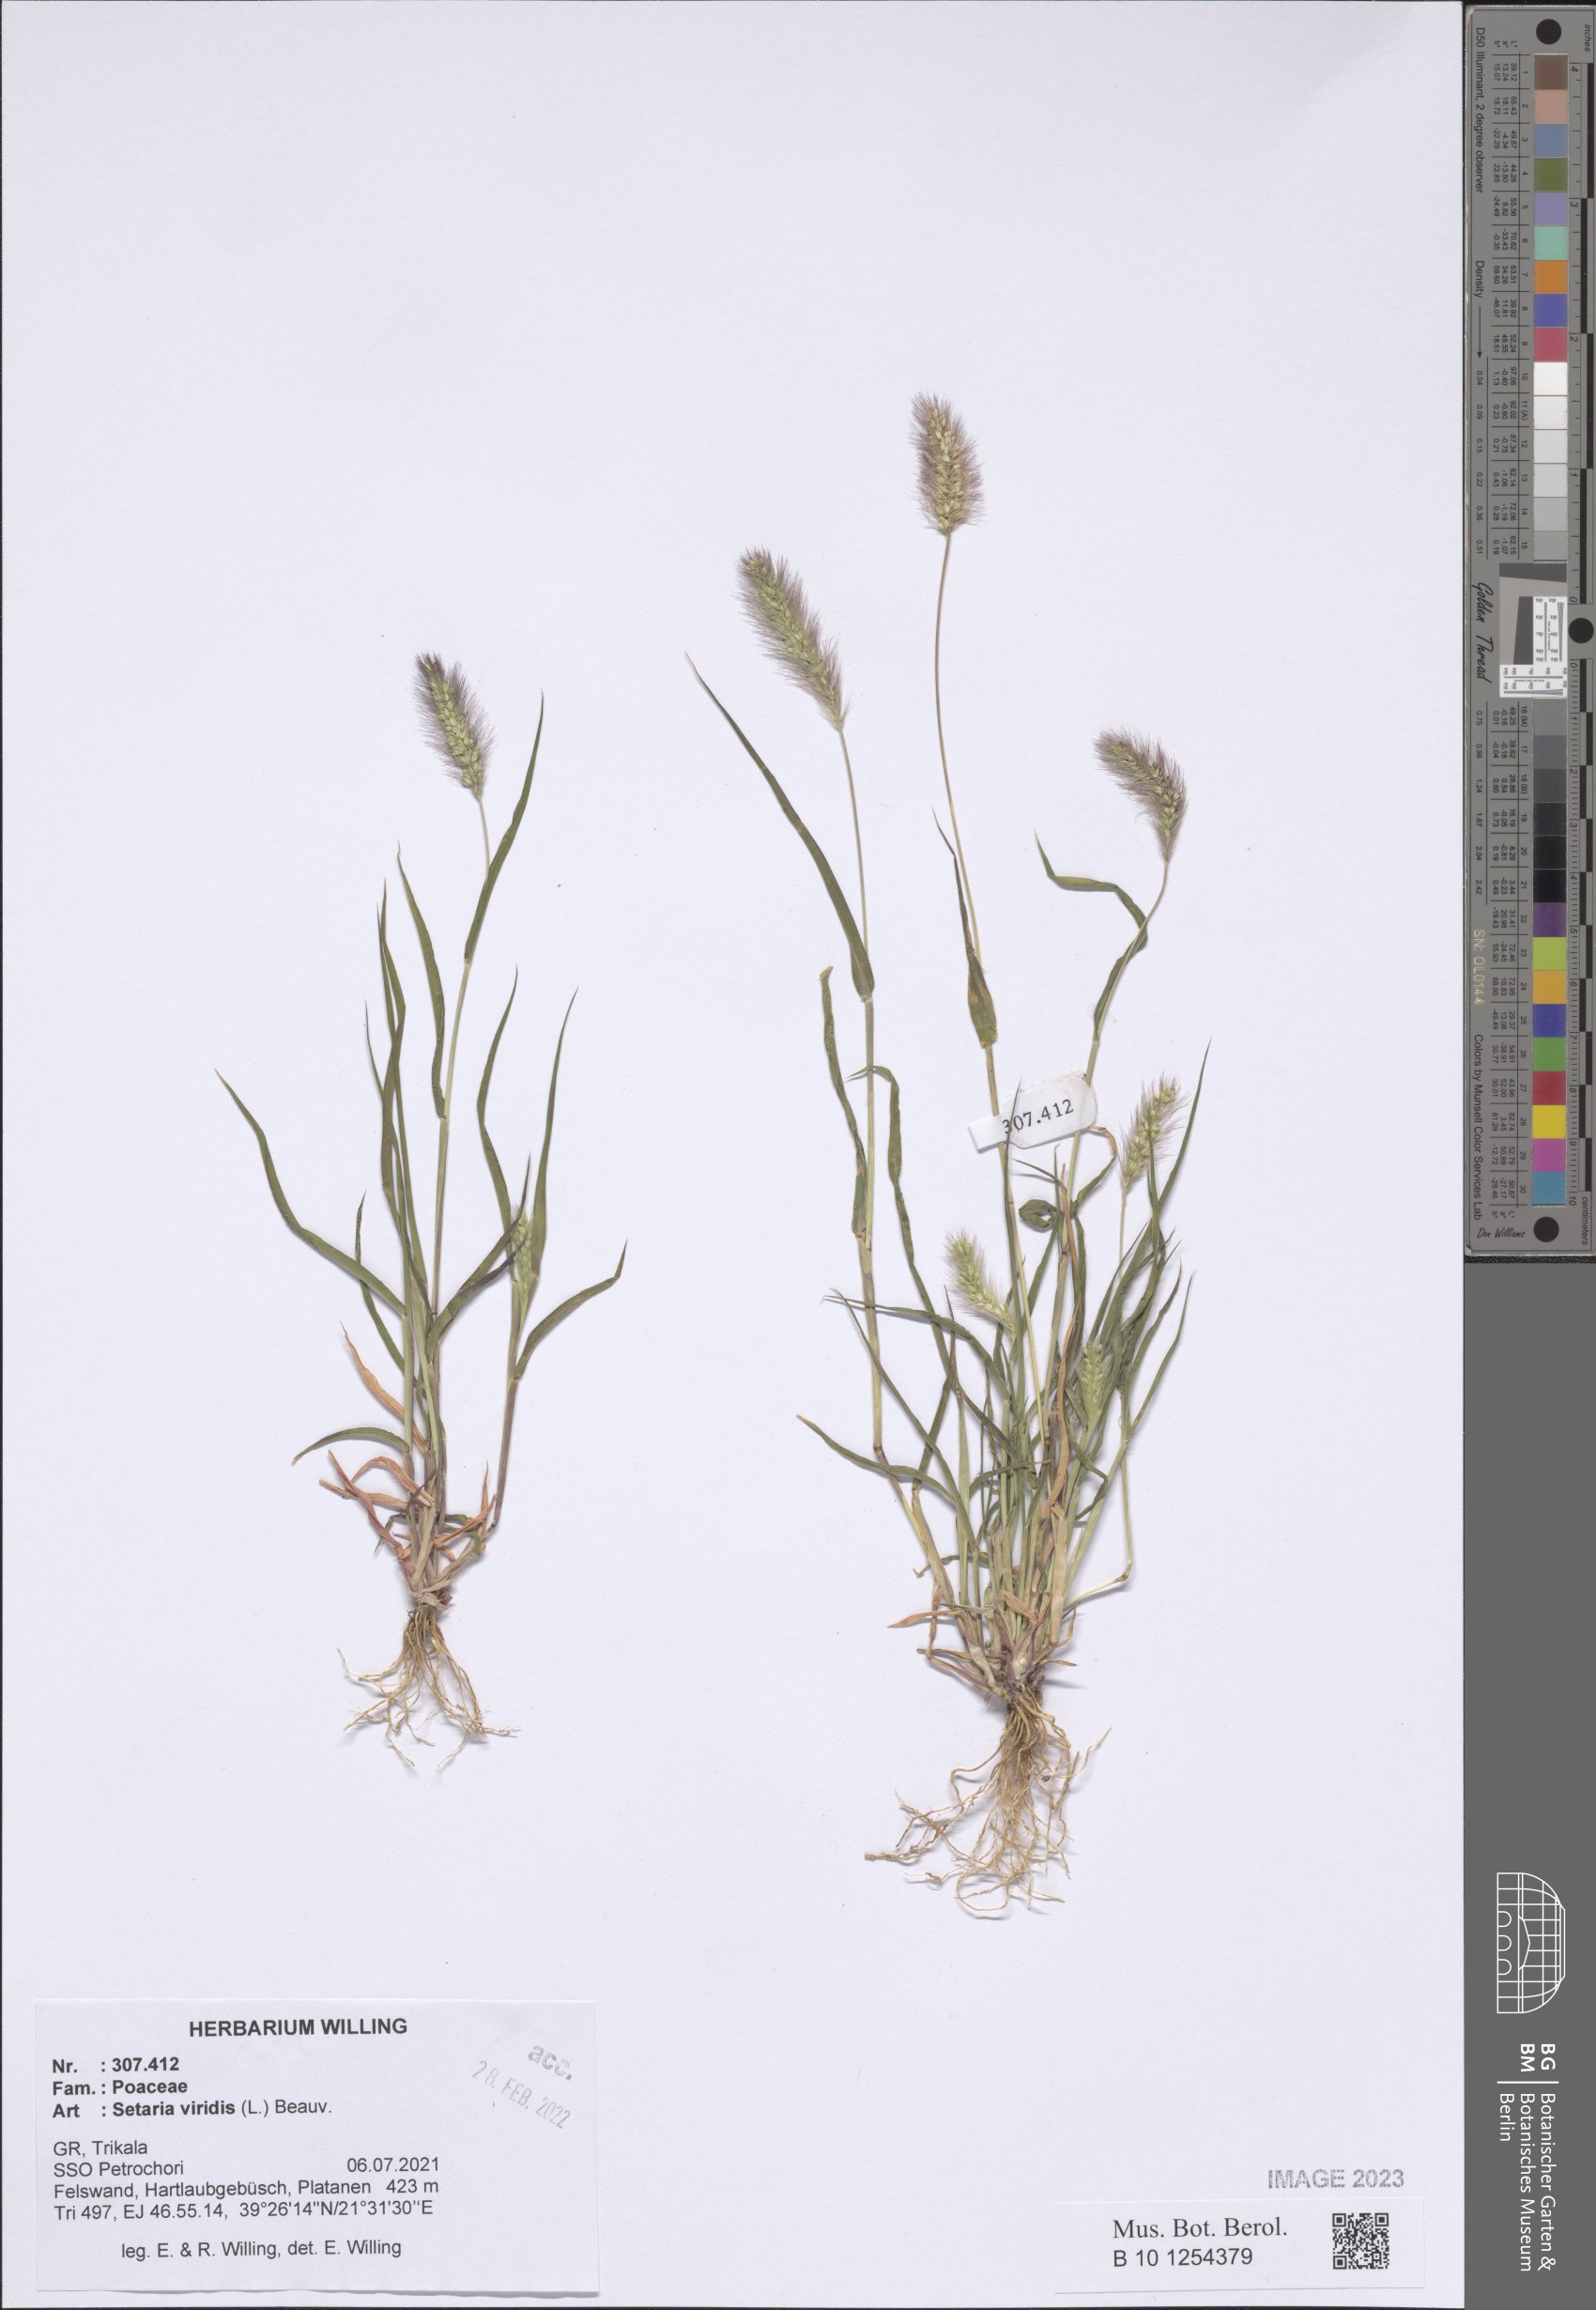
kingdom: Plantae
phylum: Tracheophyta
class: Liliopsida
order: Poales
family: Poaceae
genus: Setaria
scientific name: Setaria viridis
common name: Green bristlegrass
